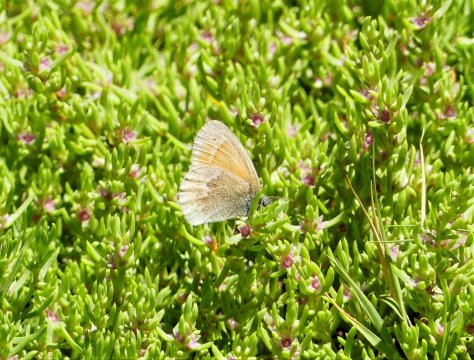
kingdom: Animalia
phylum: Arthropoda
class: Insecta
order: Lepidoptera
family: Nymphalidae
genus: Coenonympha
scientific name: Coenonympha tullia
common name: Large Heath
